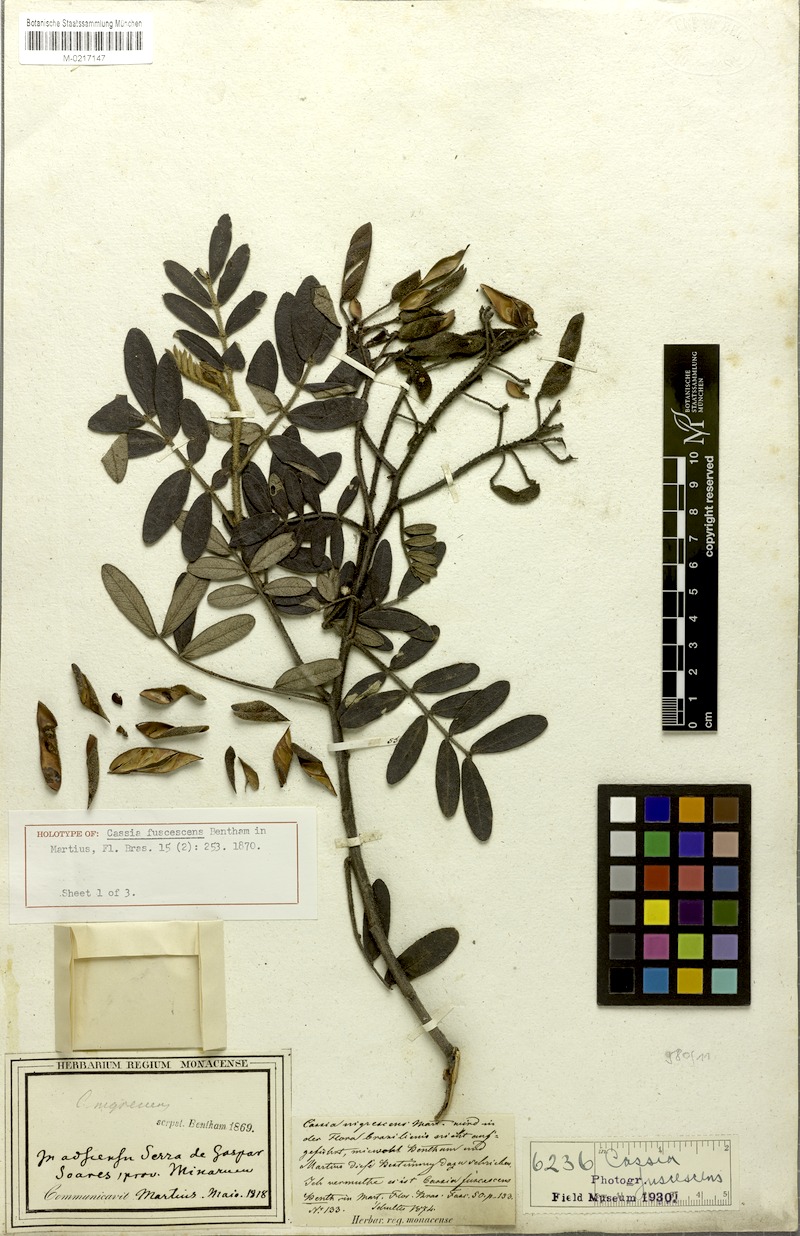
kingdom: Plantae
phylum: Tracheophyta
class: Magnoliopsida
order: Fabales
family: Fabaceae
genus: Cassia
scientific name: Cassia
